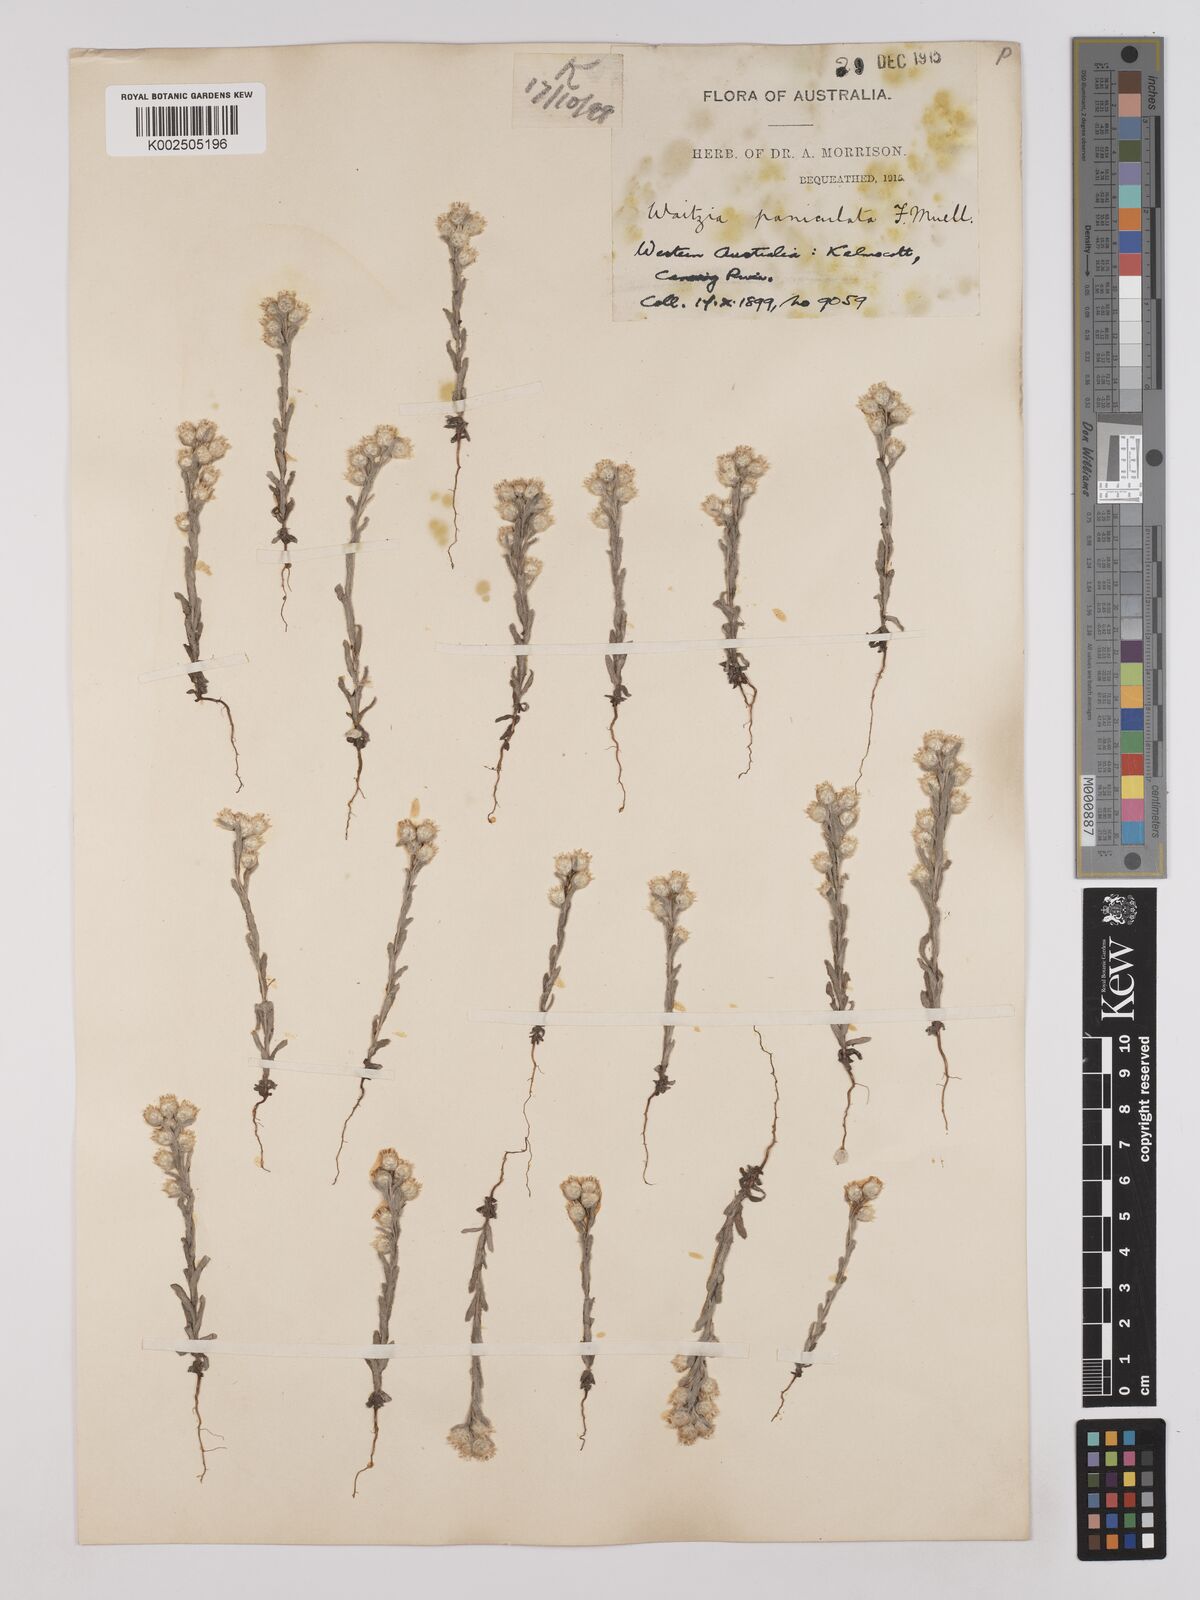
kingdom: Plantae
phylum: Tracheophyta
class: Magnoliopsida
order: Asterales
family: Asteraceae
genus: Pterochaeta
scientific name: Pterochaeta paniculata
